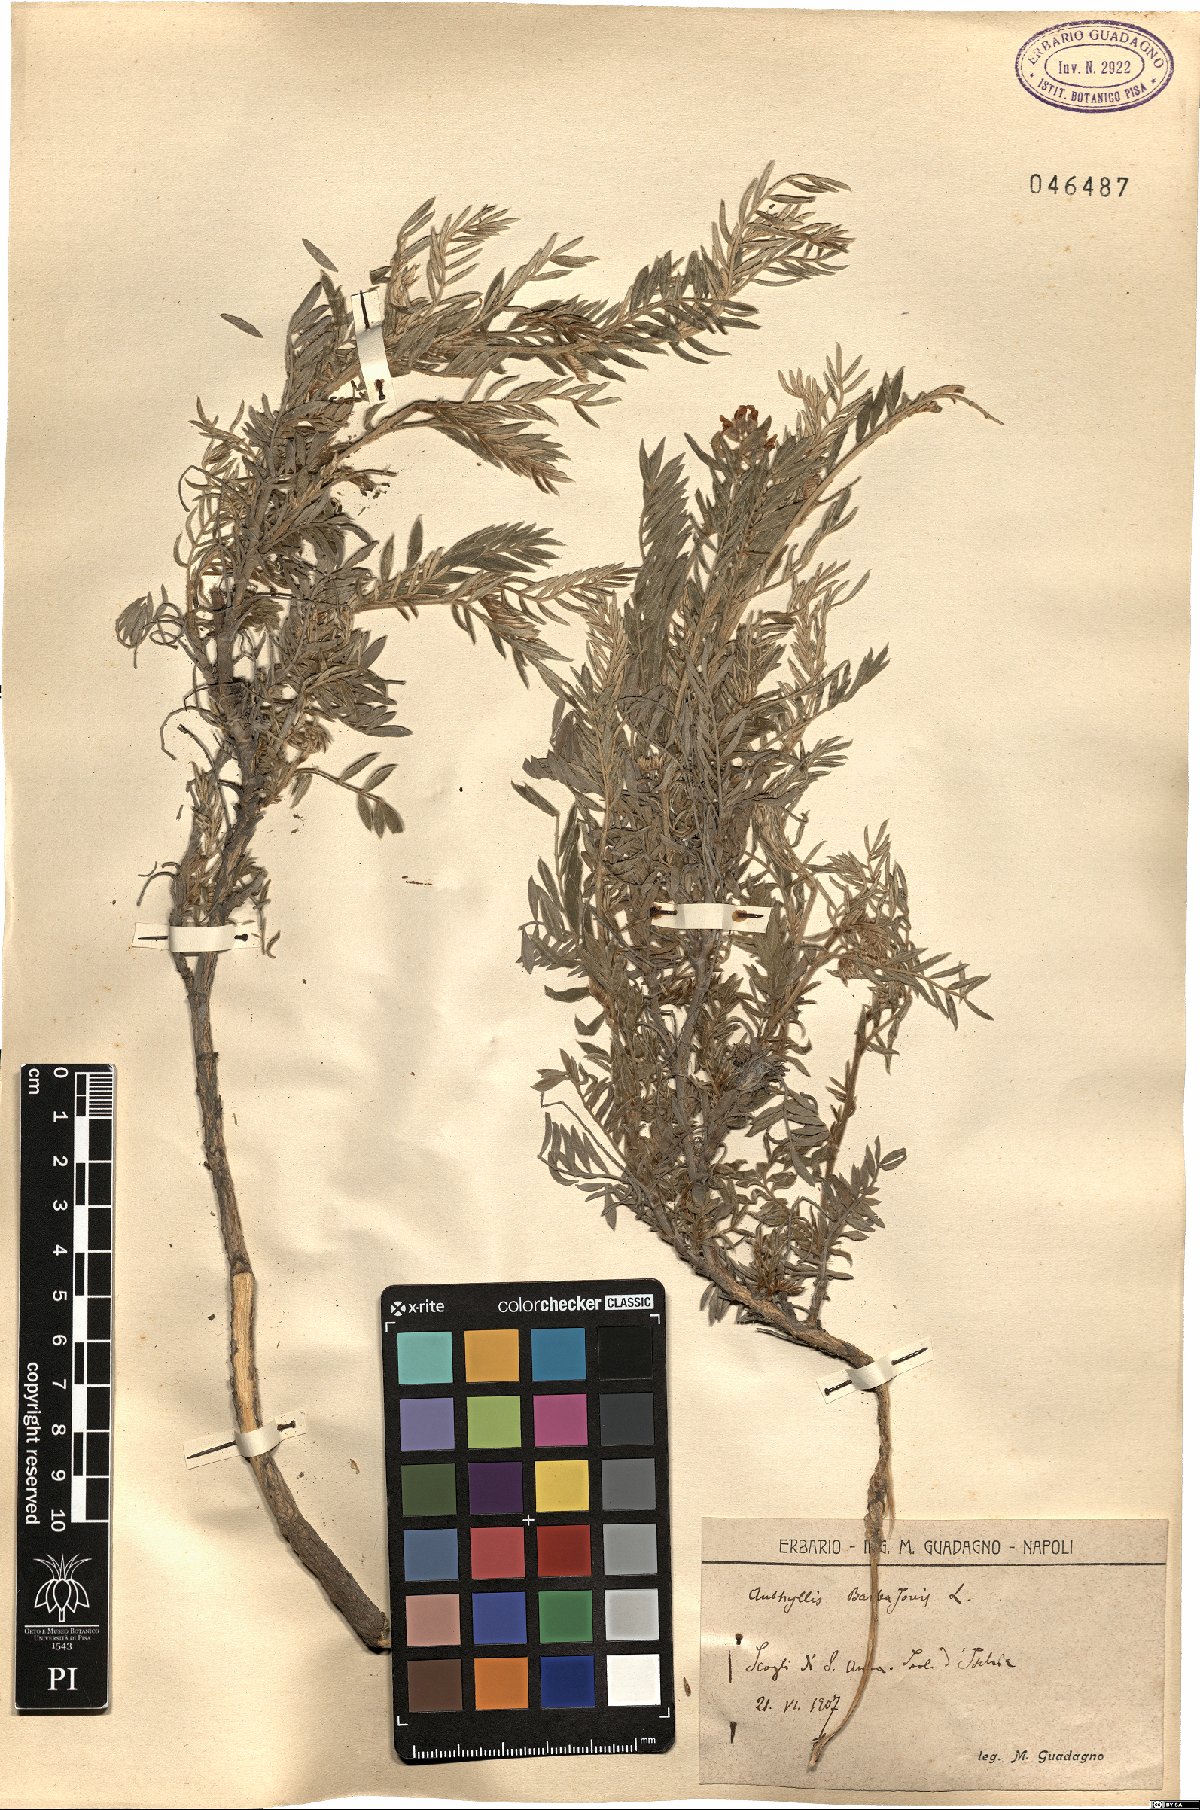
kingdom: Plantae
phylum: Tracheophyta
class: Magnoliopsida
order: Fabales
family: Fabaceae
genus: Anthyllis
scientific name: Anthyllis barba-jovis
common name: Jupiter's-beard
